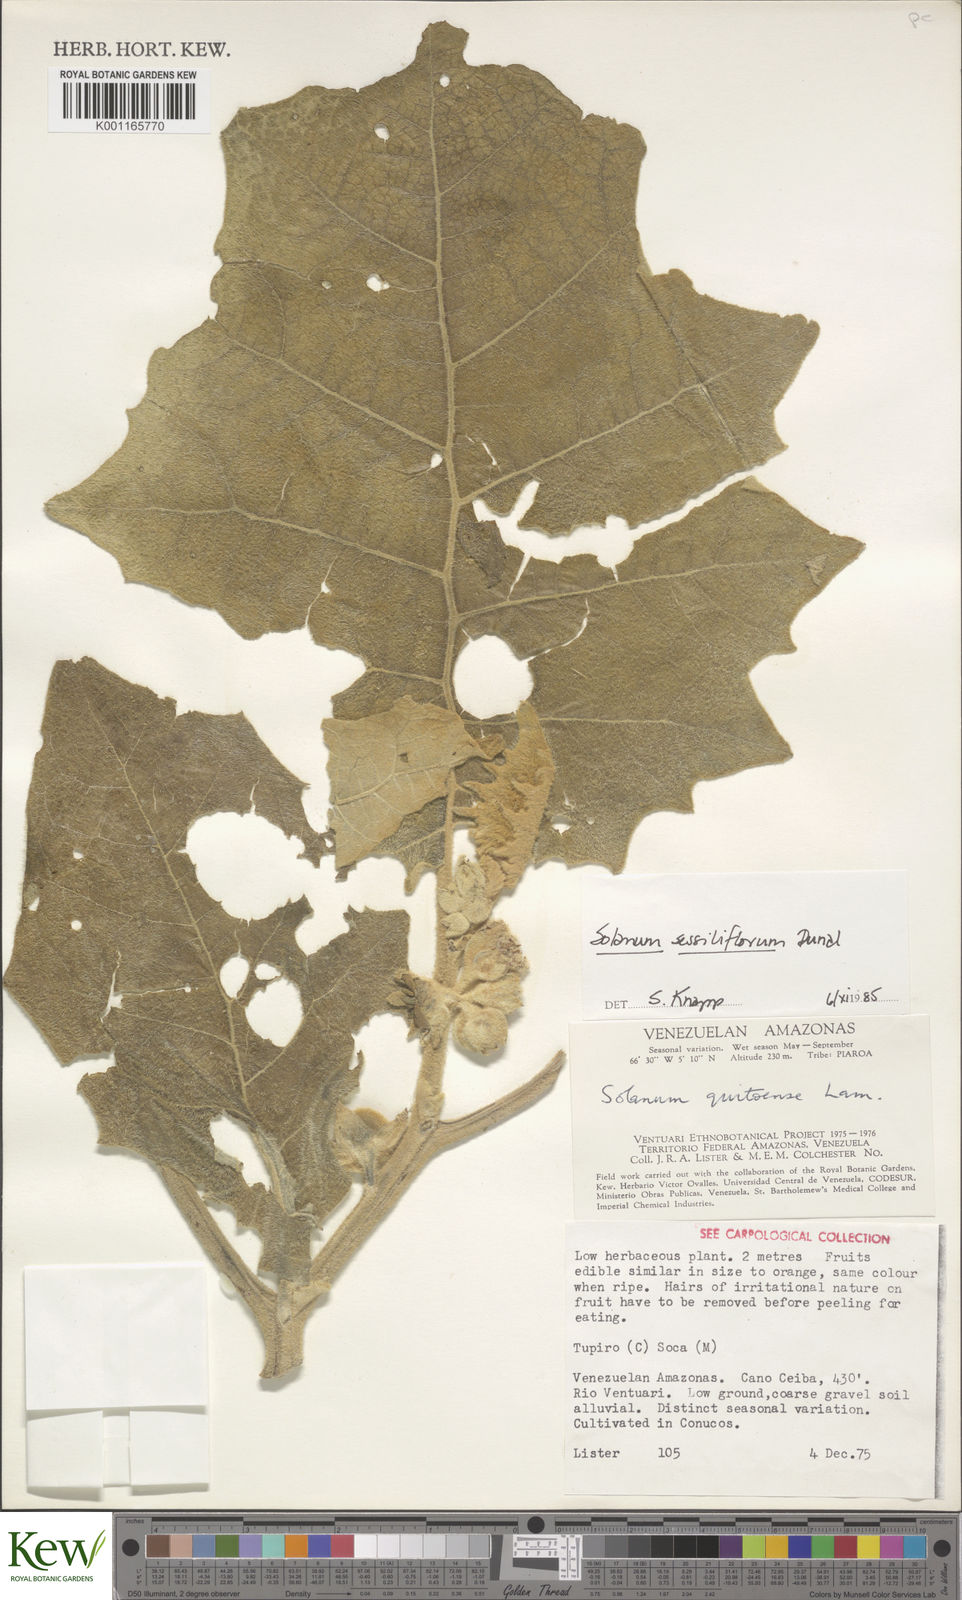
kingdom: Plantae
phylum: Tracheophyta
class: Magnoliopsida
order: Solanales
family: Solanaceae
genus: Solanum
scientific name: Solanum sessiliflorum
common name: Orinoco-apple
